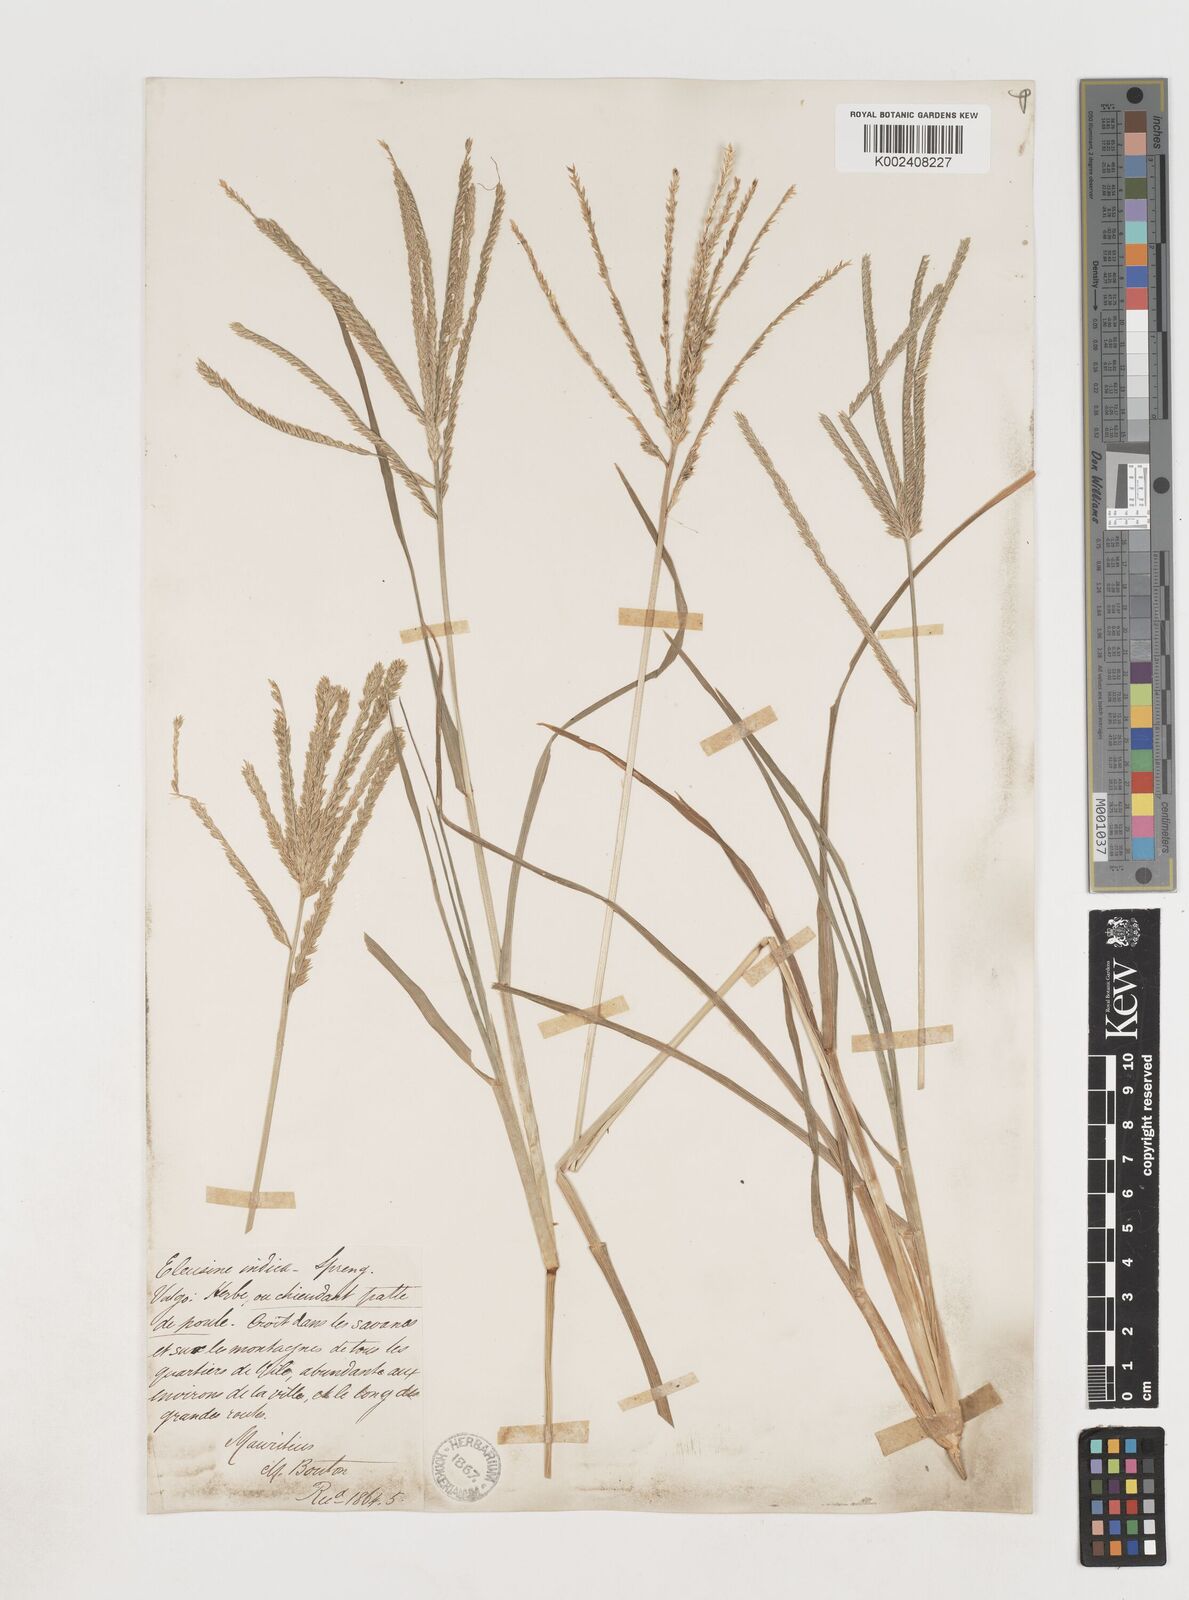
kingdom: Plantae
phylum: Tracheophyta
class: Liliopsida
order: Poales
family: Poaceae
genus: Eleusine
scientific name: Eleusine africana
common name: Wild african finger millet
